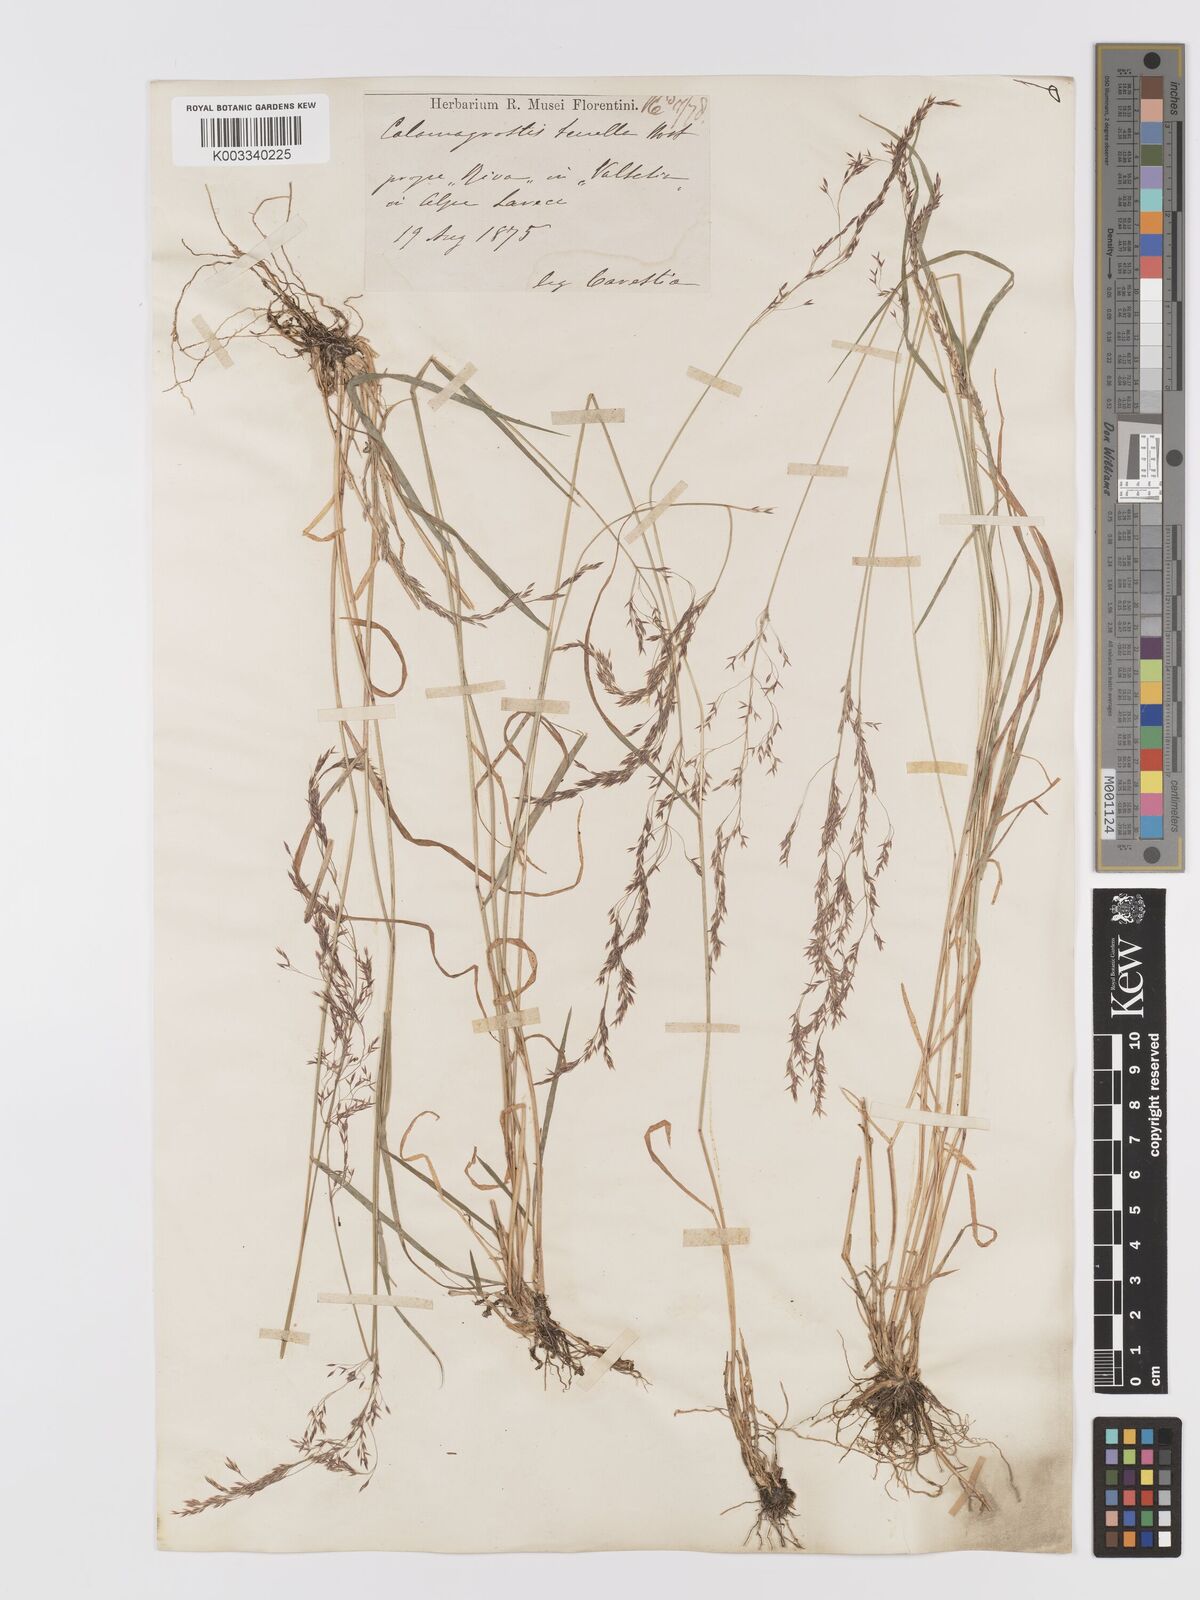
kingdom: Plantae
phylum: Tracheophyta
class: Liliopsida
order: Poales
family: Poaceae
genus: Agrostis
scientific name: Agrostis schraderiana
